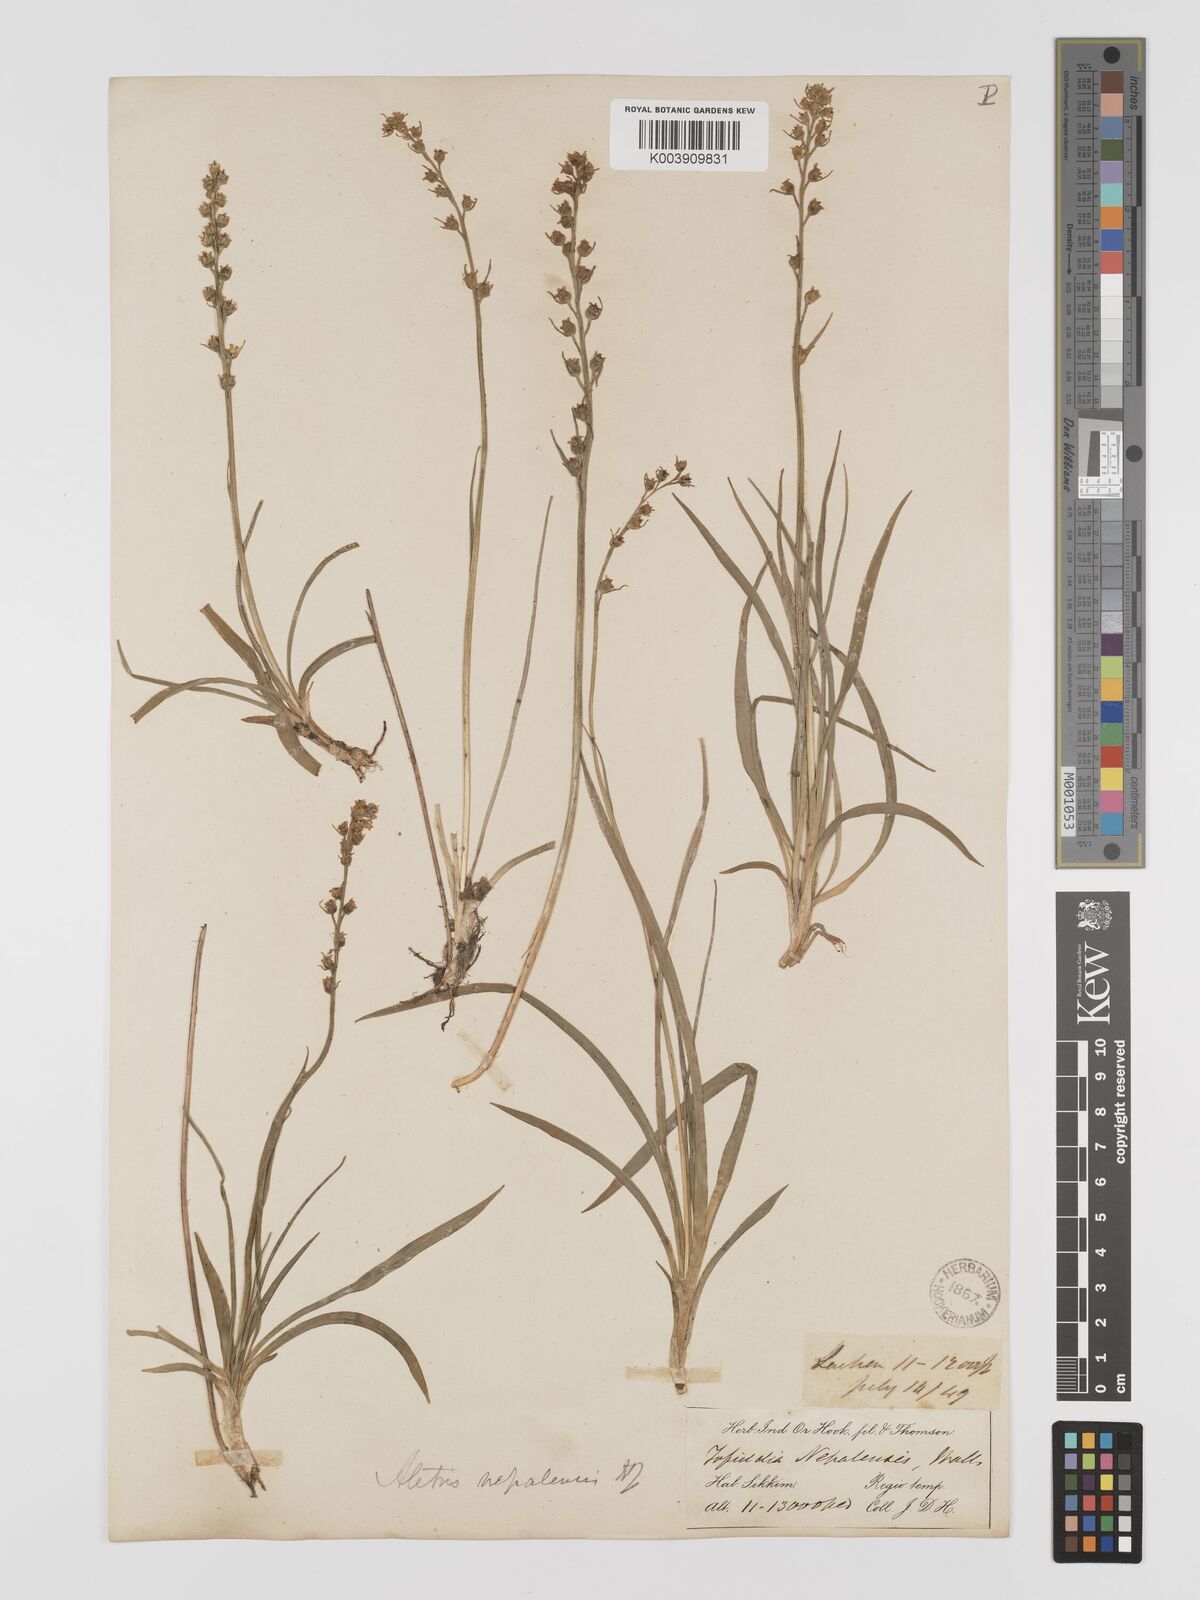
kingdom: Plantae
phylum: Tracheophyta
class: Liliopsida
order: Dioscoreales
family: Nartheciaceae
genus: Aletris
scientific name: Aletris pauciflora
